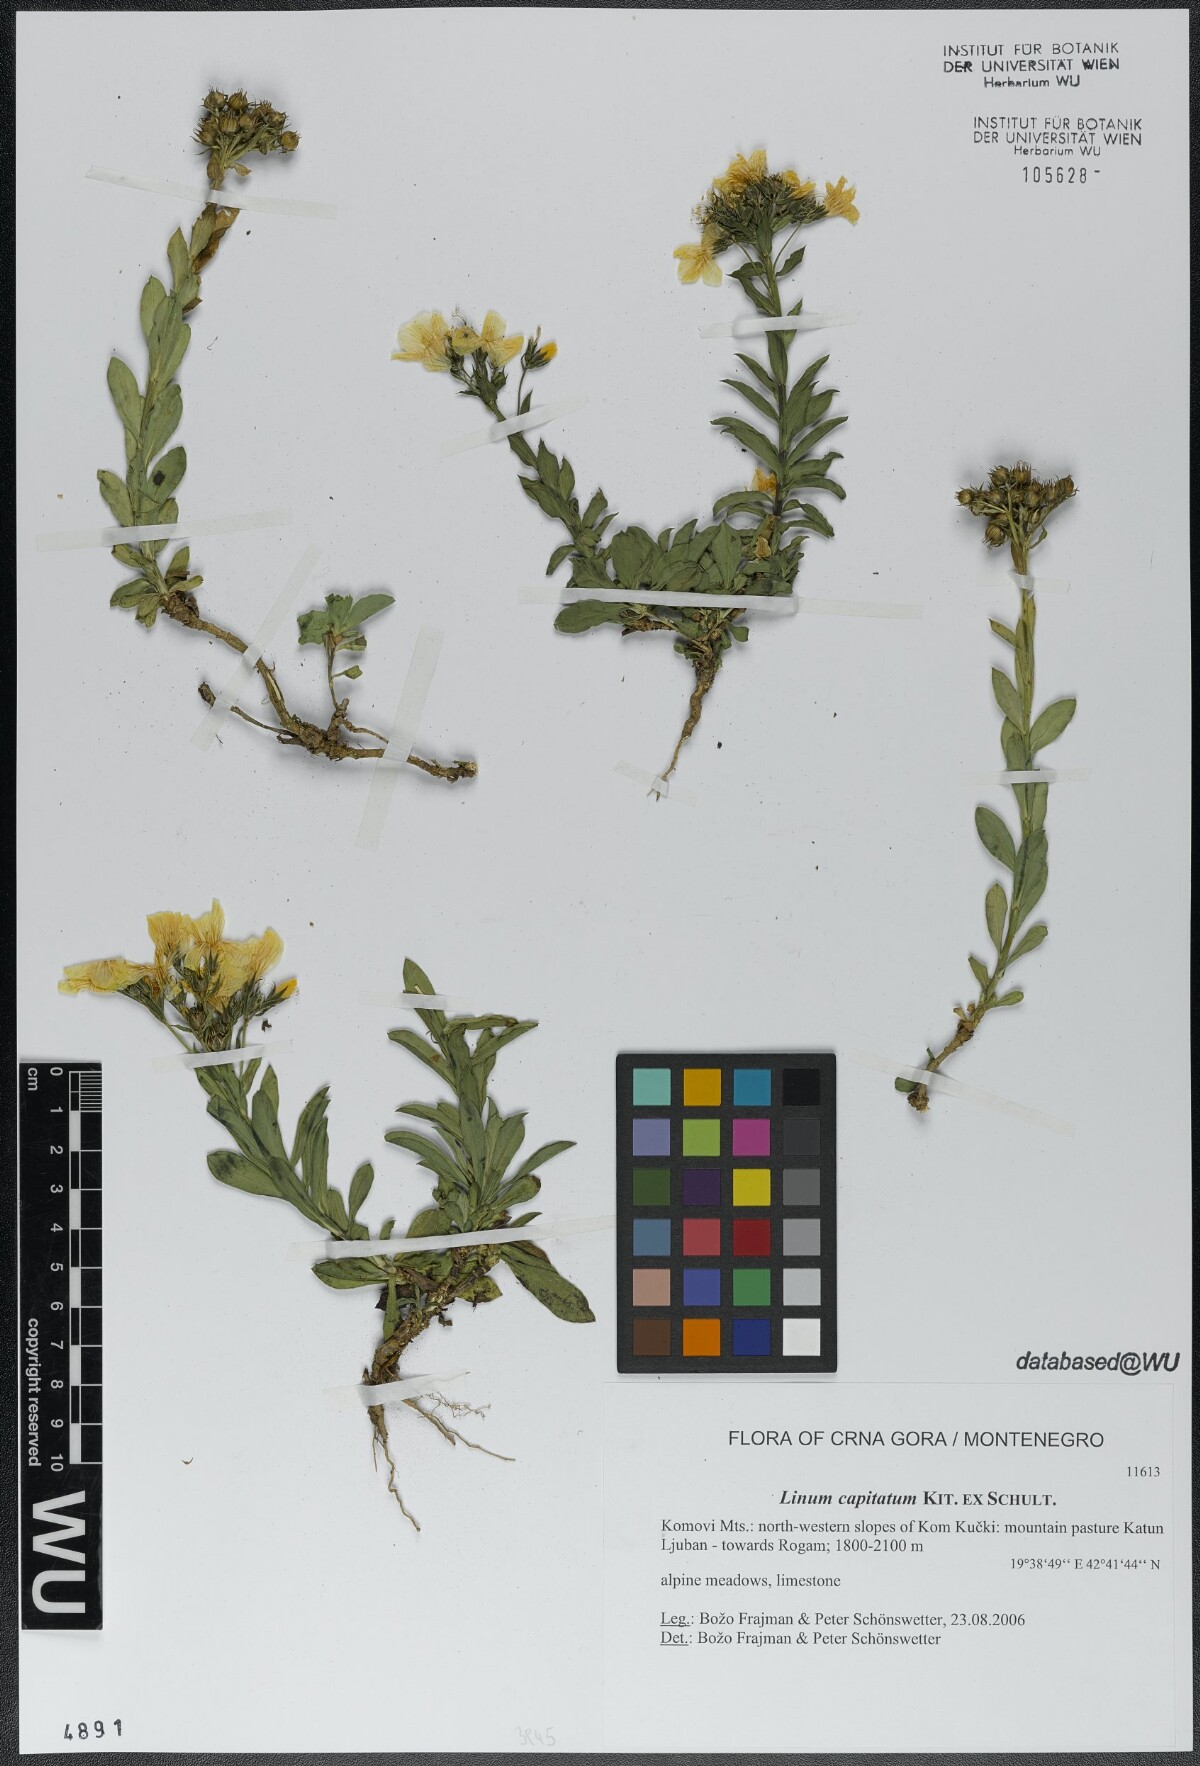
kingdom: Plantae
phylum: Tracheophyta
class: Magnoliopsida
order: Malpighiales
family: Linaceae
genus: Linum
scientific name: Linum capitatum
